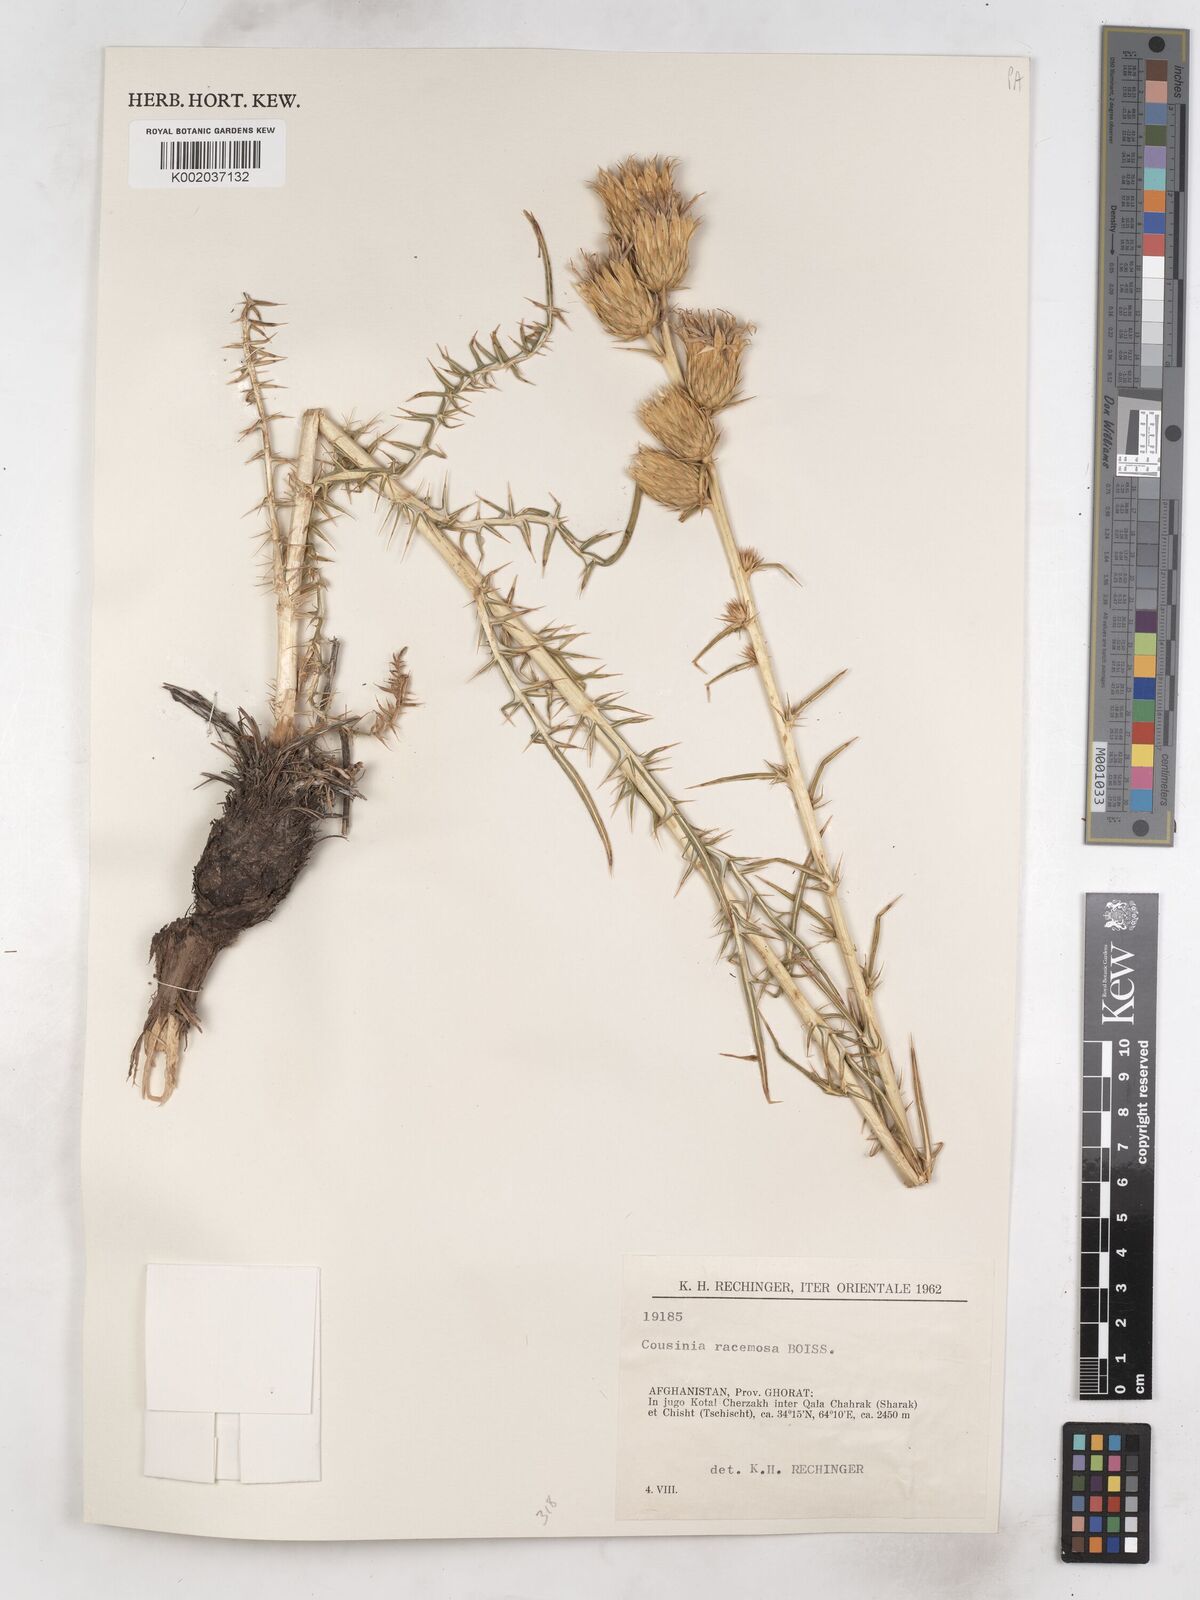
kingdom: Plantae
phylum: Tracheophyta
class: Magnoliopsida
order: Asterales
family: Asteraceae
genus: Cousinia
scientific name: Cousinia racemosa
